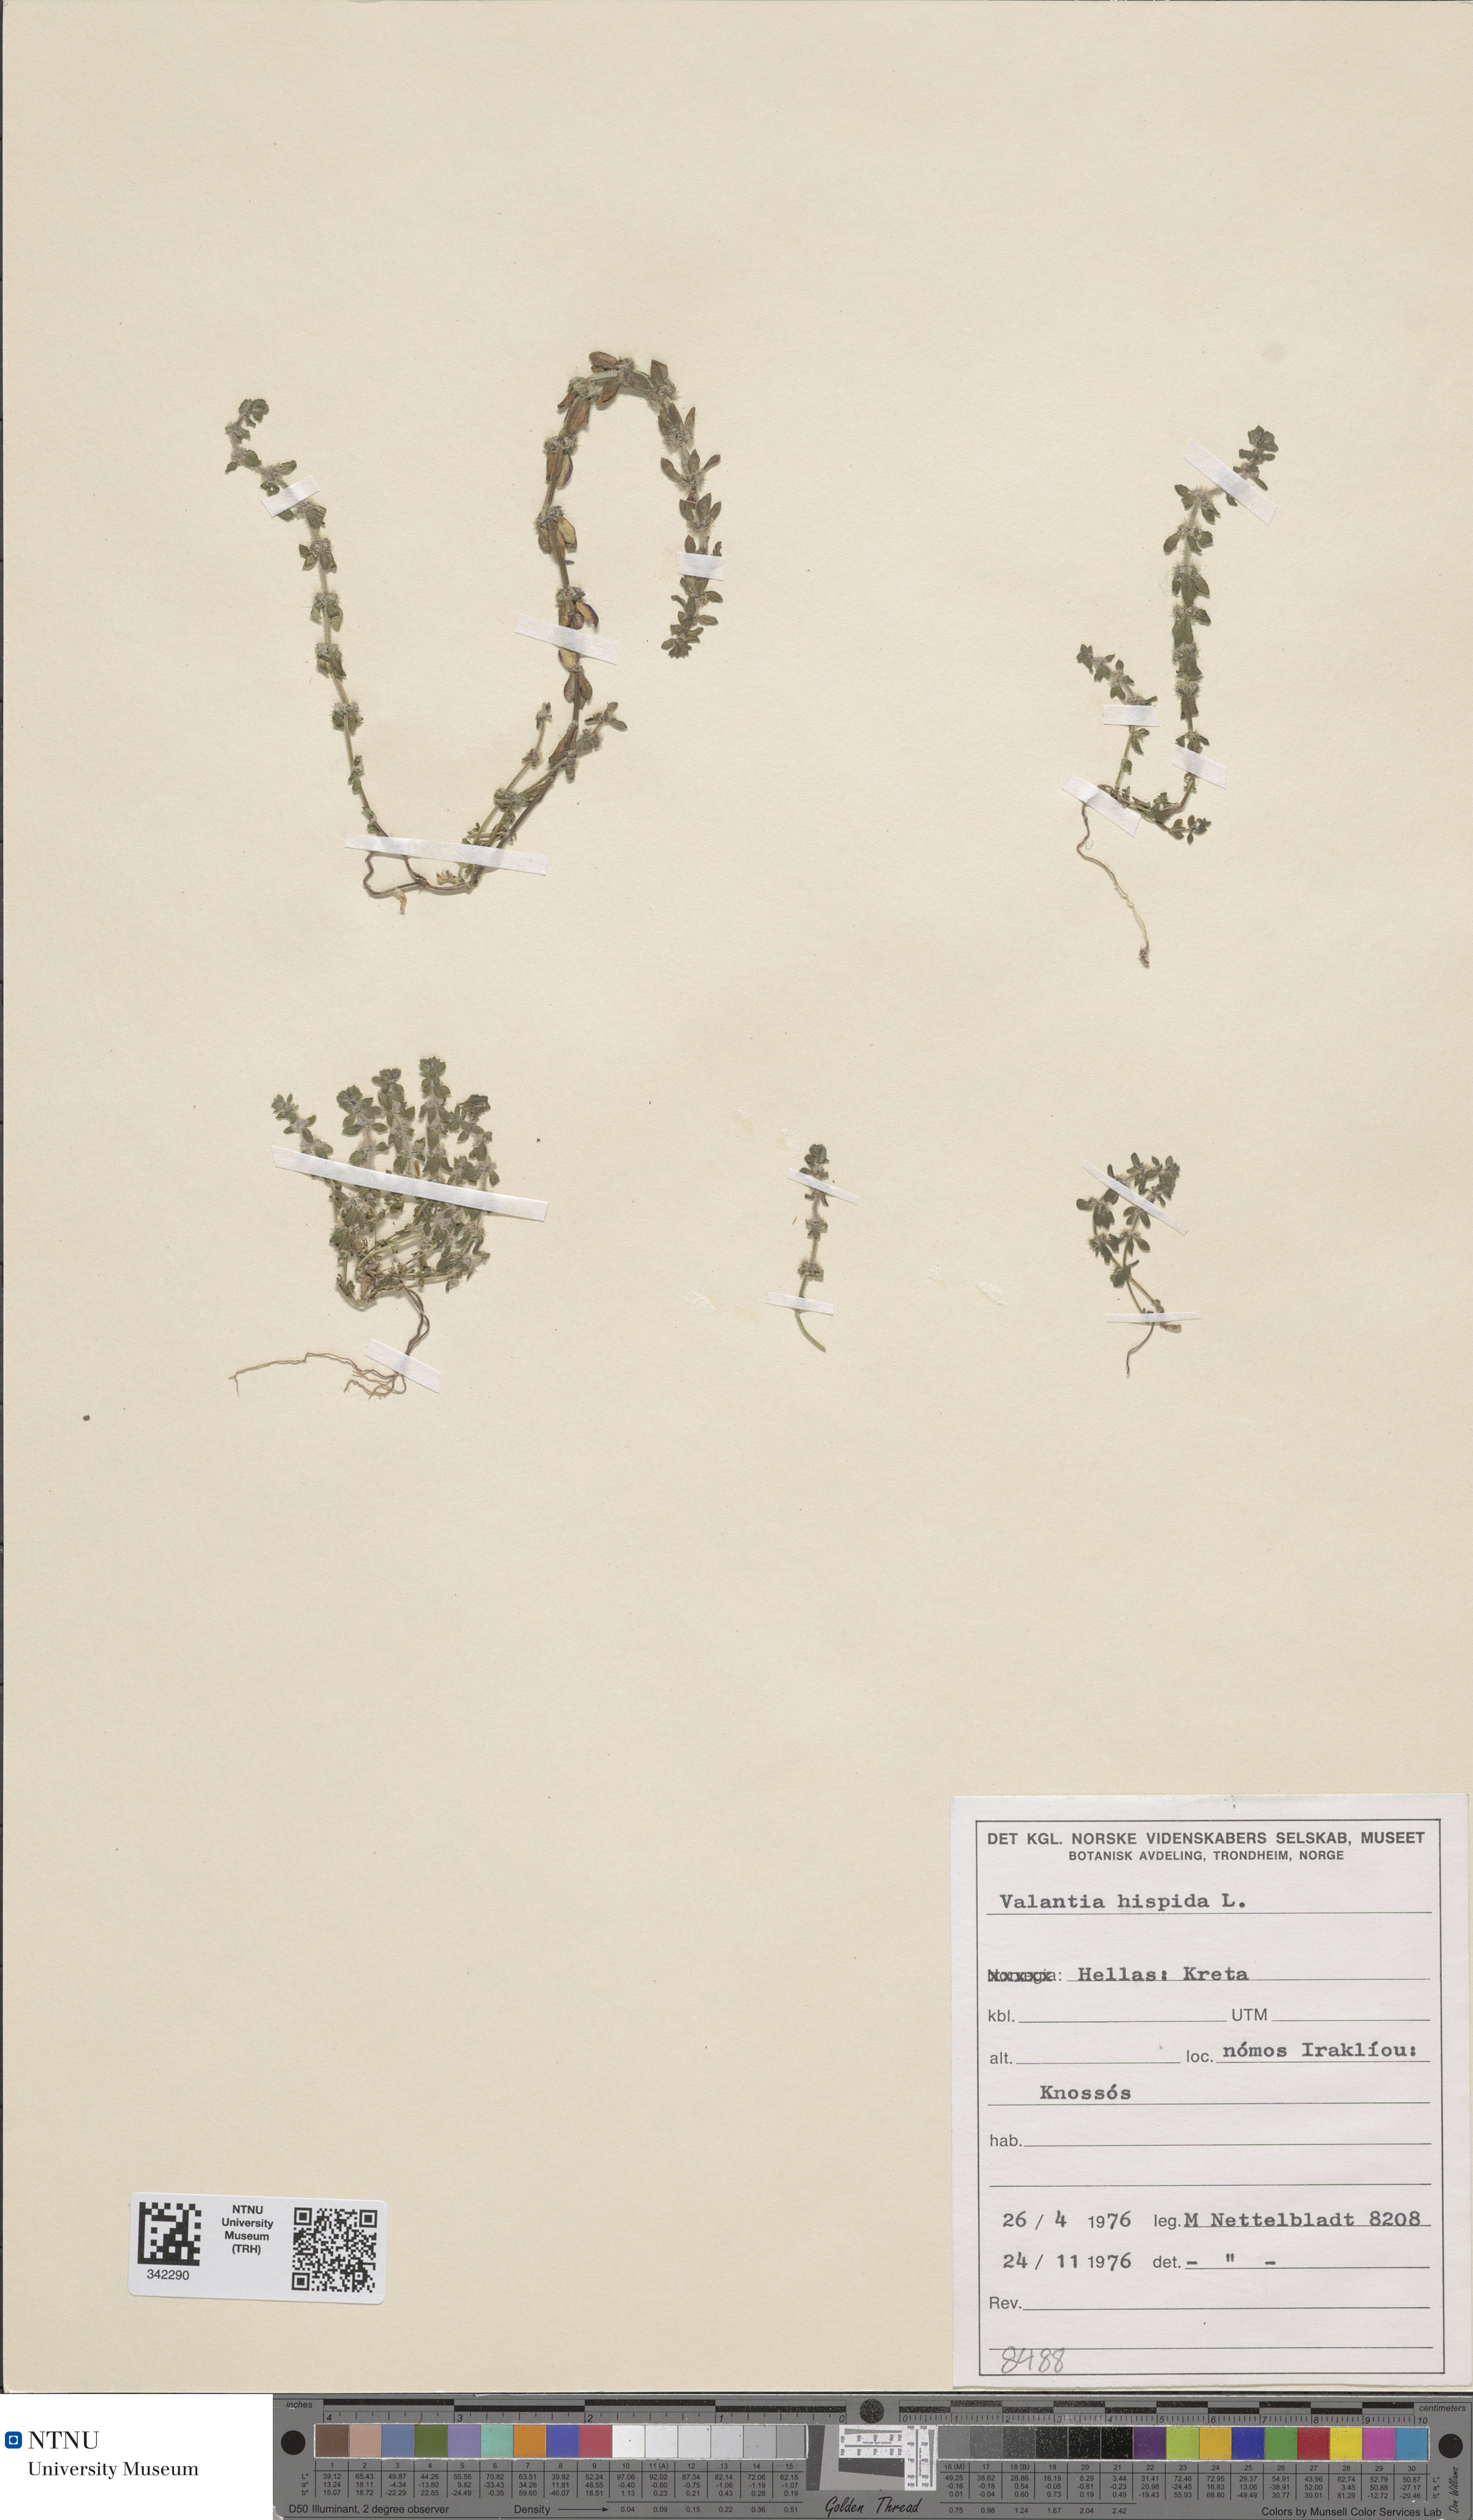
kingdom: Plantae
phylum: Tracheophyta
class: Magnoliopsida
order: Gentianales
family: Rubiaceae
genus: Valantia
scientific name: Valantia hispida
